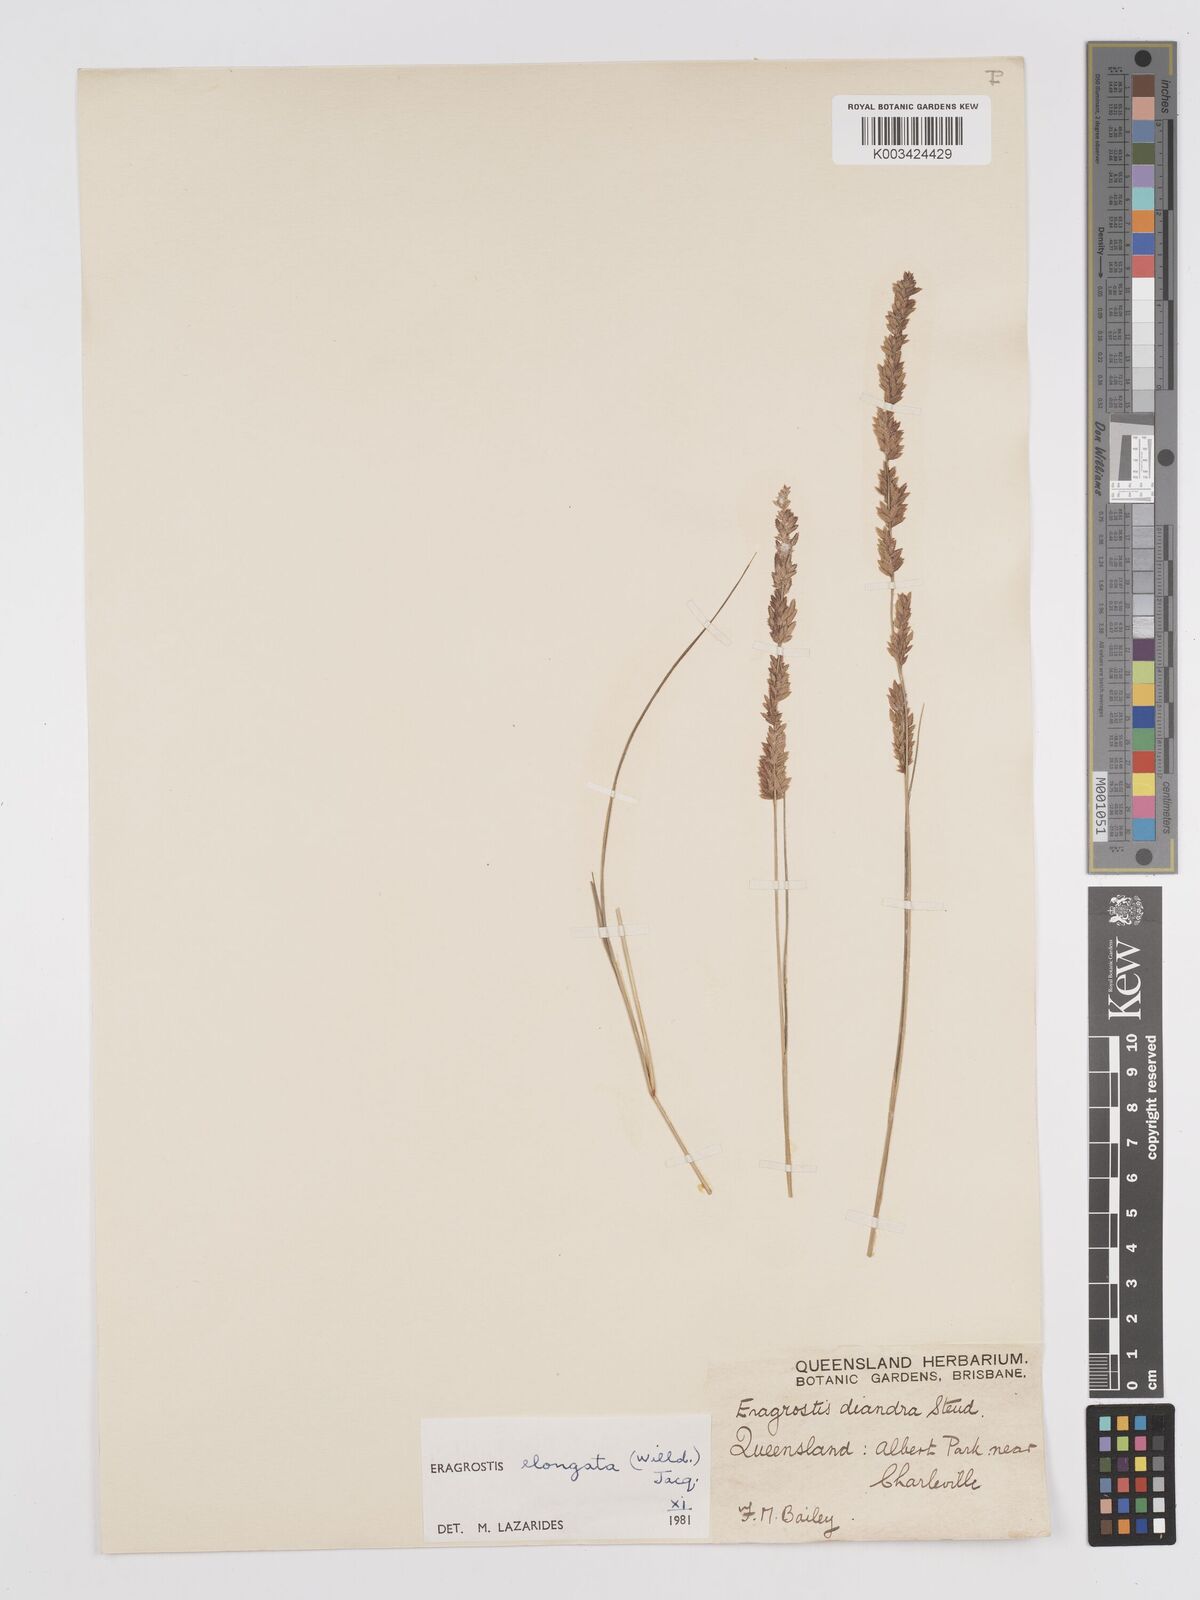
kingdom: Plantae
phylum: Tracheophyta
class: Liliopsida
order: Poales
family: Poaceae
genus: Eragrostis
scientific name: Eragrostis elongata
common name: Long lovegrass
